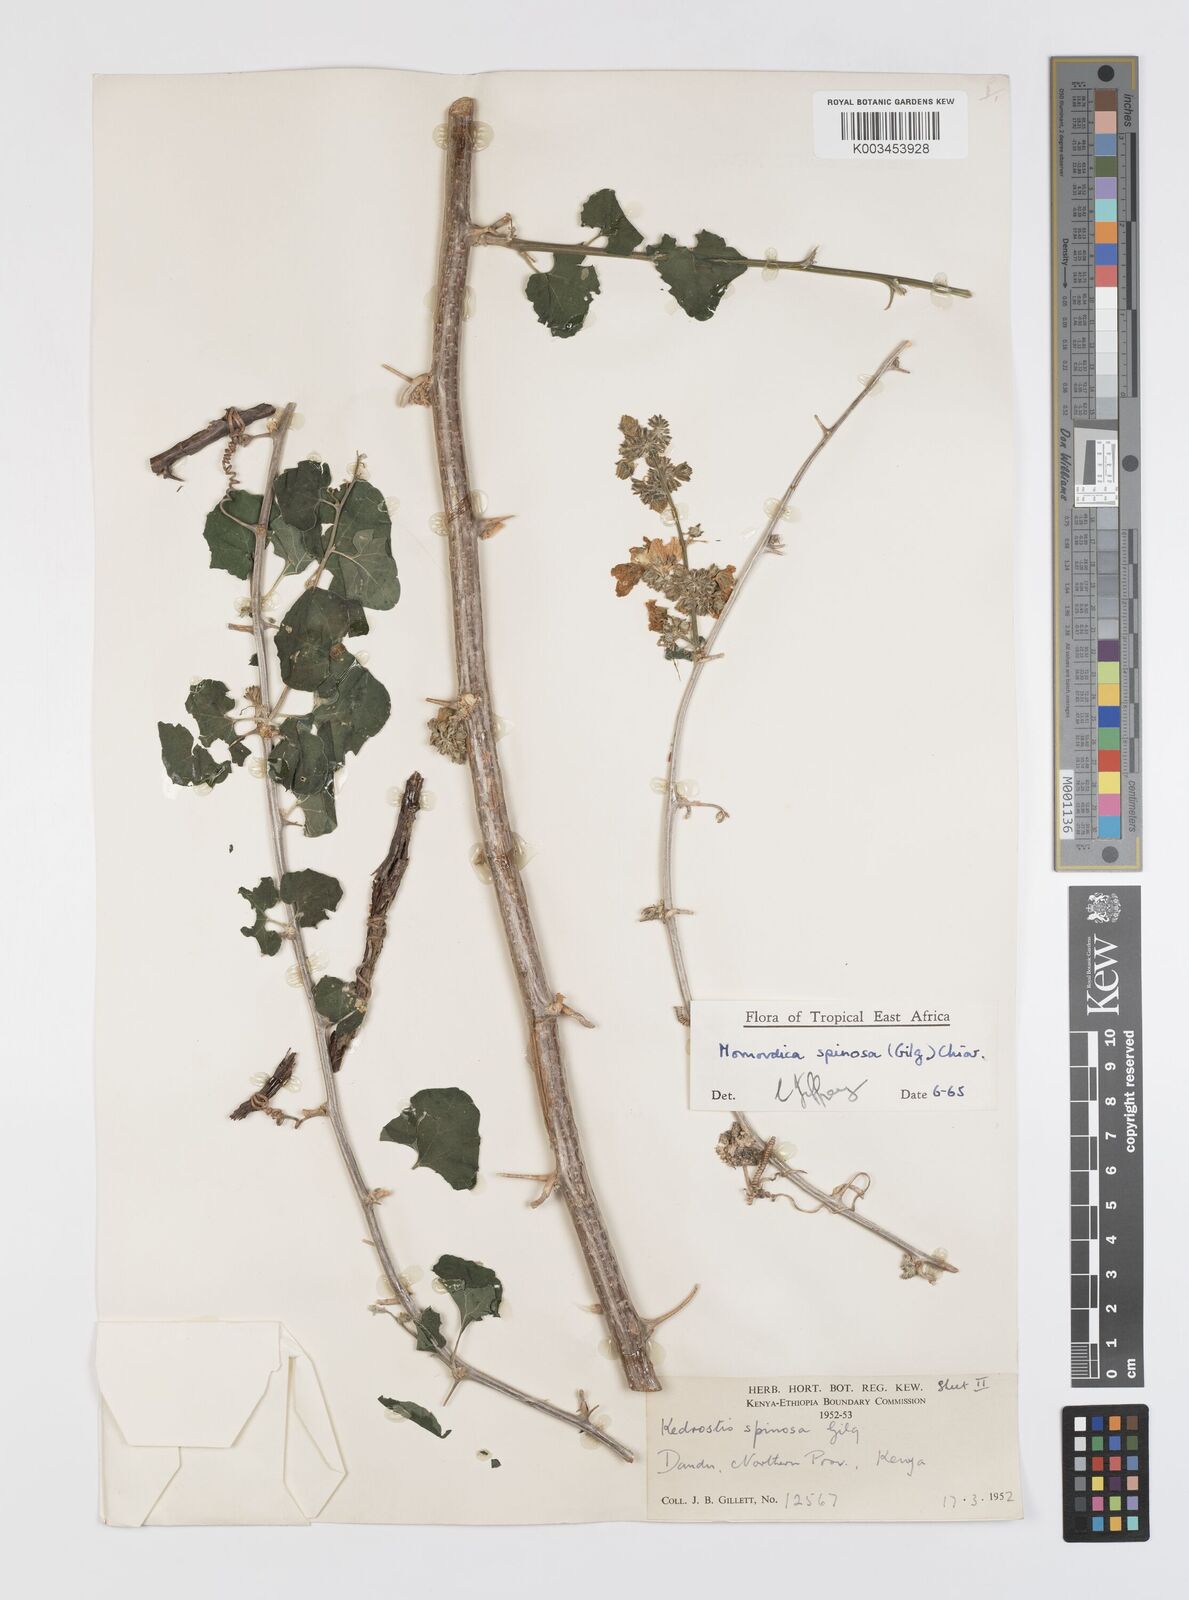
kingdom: Plantae
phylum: Tracheophyta
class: Magnoliopsida
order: Cucurbitales
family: Cucurbitaceae
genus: Momordica
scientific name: Momordica spinosa
